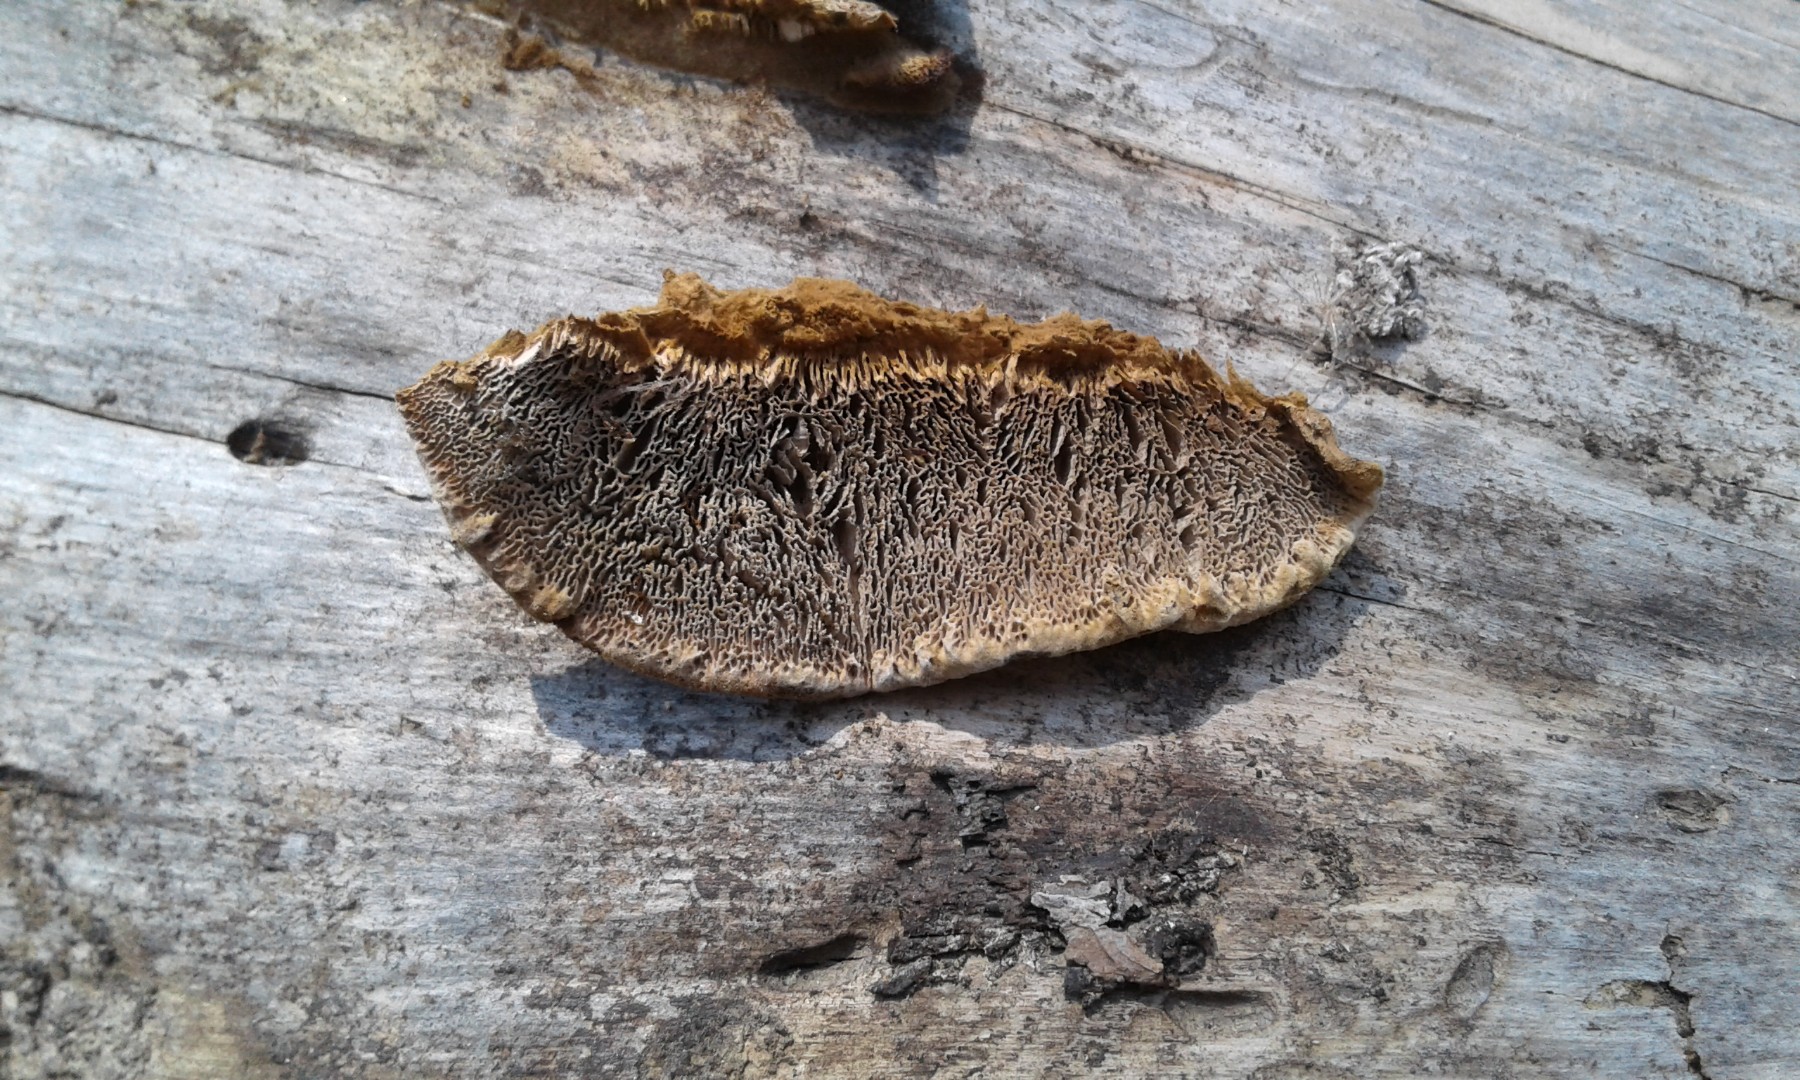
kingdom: Fungi
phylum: Basidiomycota
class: Agaricomycetes
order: Gloeophyllales
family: Gloeophyllaceae
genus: Gloeophyllum
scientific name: Gloeophyllum
